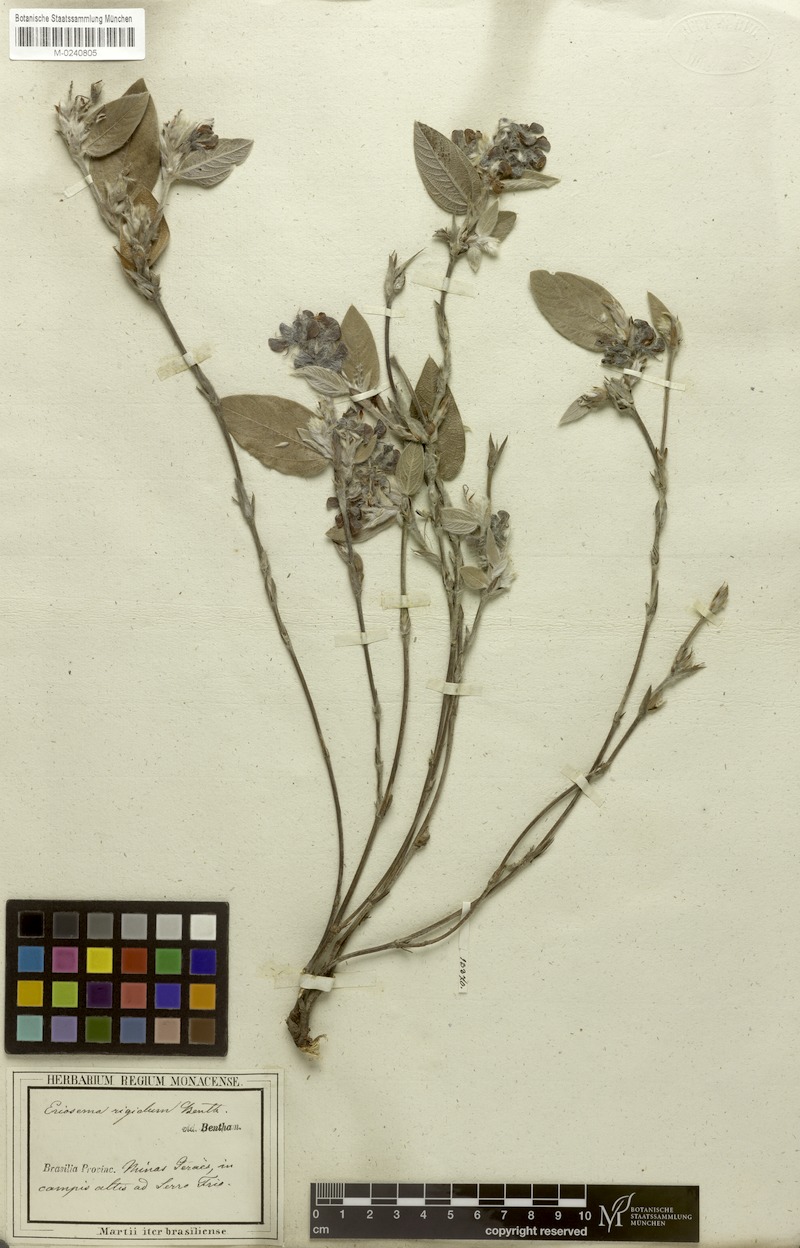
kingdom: Plantae
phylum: Tracheophyta
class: Magnoliopsida
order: Fabales
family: Fabaceae
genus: Eriosema
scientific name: Eriosema rigidum
